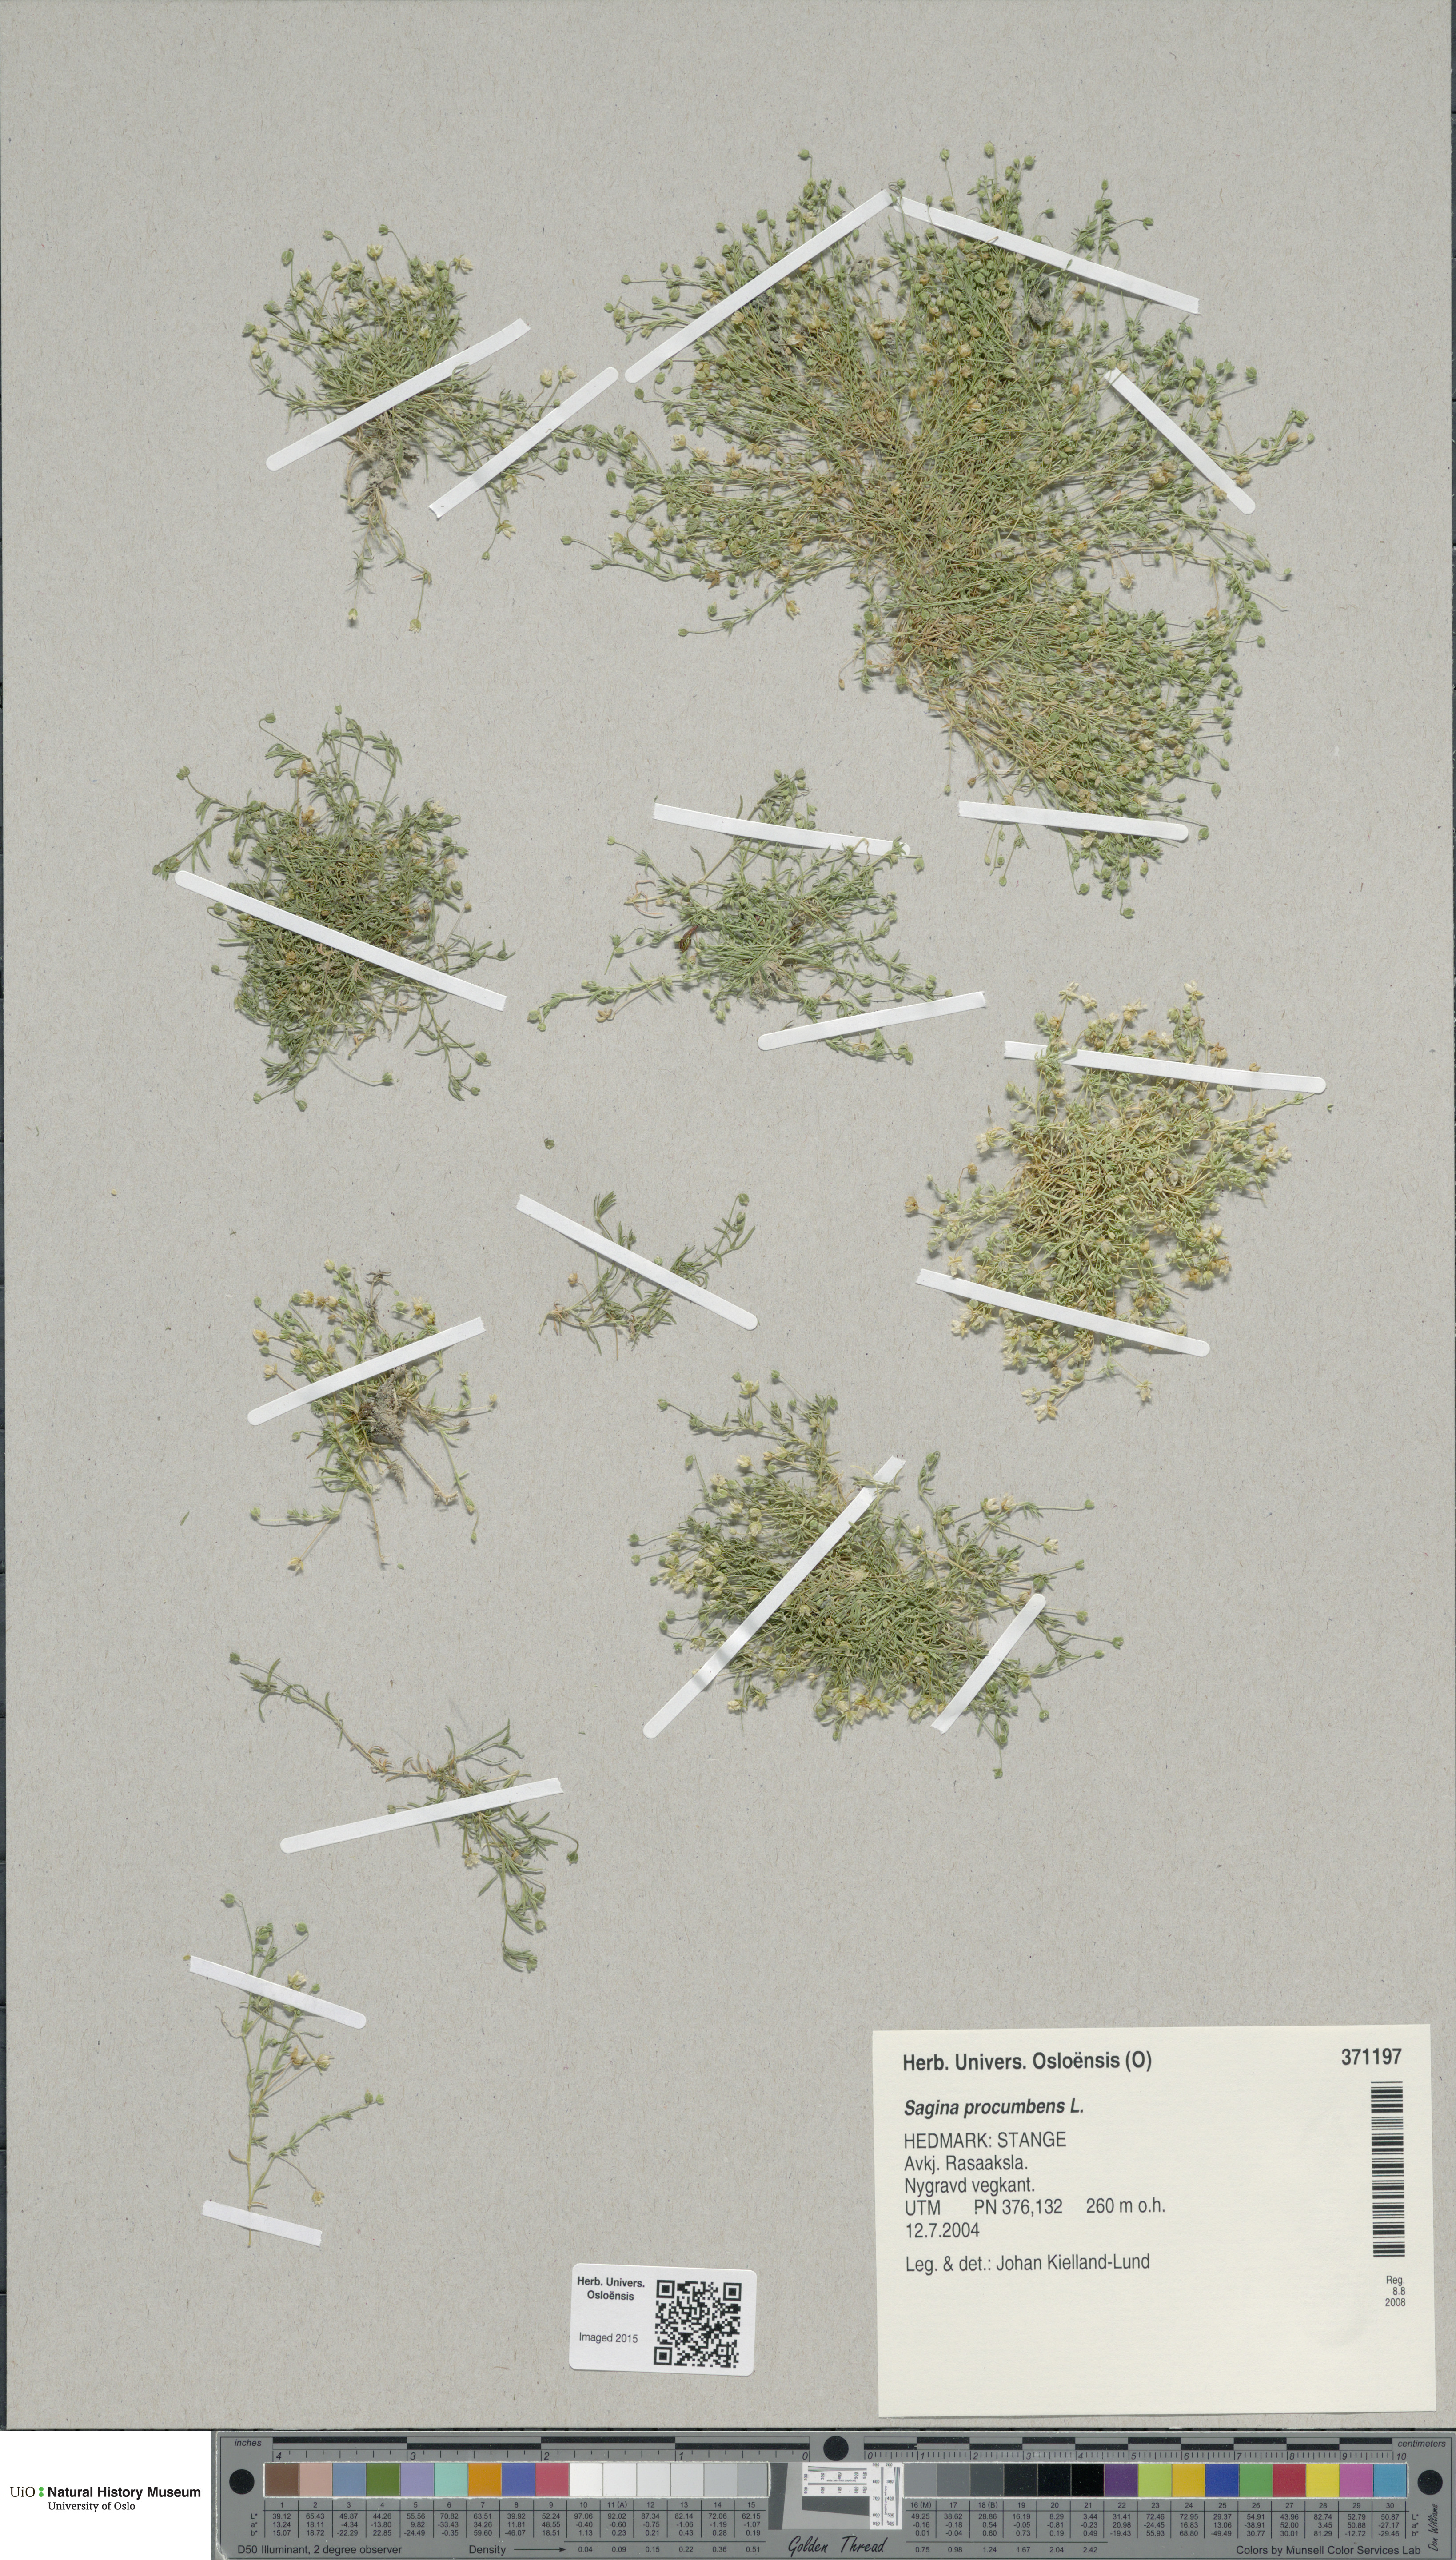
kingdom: Plantae
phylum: Tracheophyta
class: Magnoliopsida
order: Caryophyllales
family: Caryophyllaceae
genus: Sagina
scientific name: Sagina procumbens
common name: Procumbent pearlwort
